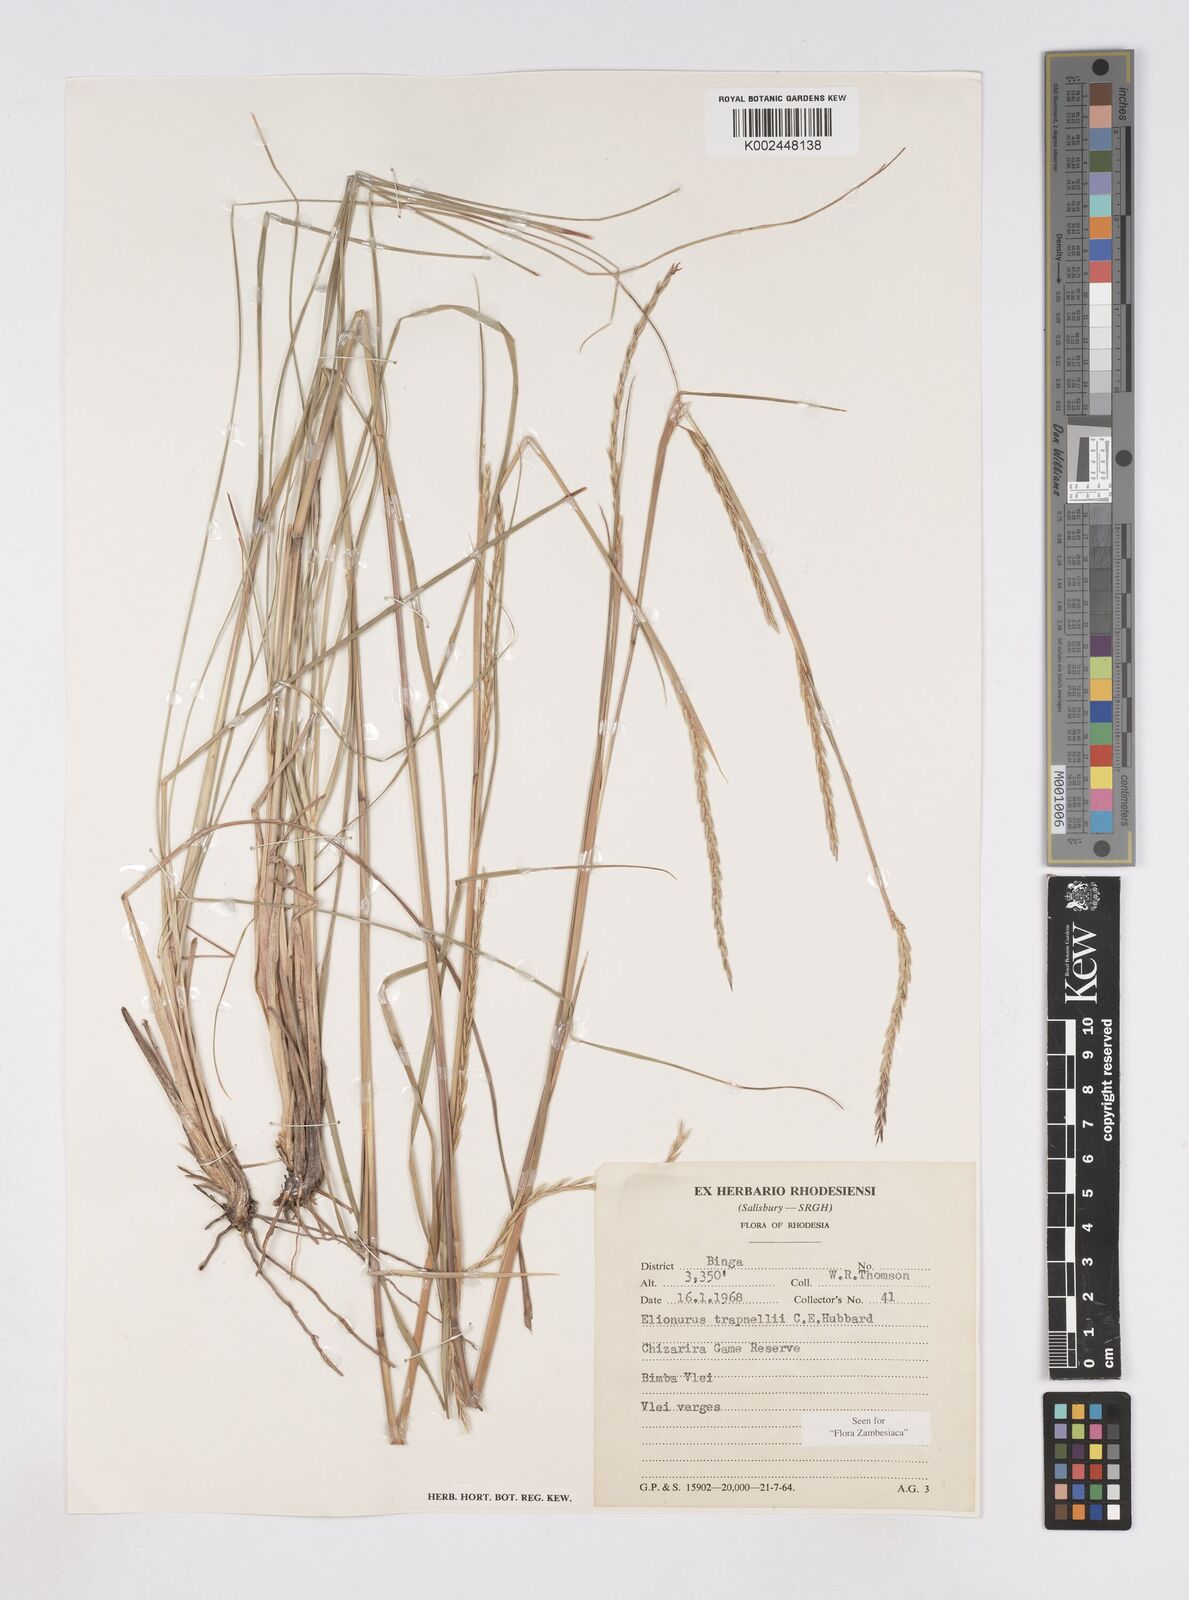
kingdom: Plantae
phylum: Tracheophyta
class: Liliopsida
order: Poales
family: Poaceae
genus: Elionurus
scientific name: Elionurus tripsacoides
